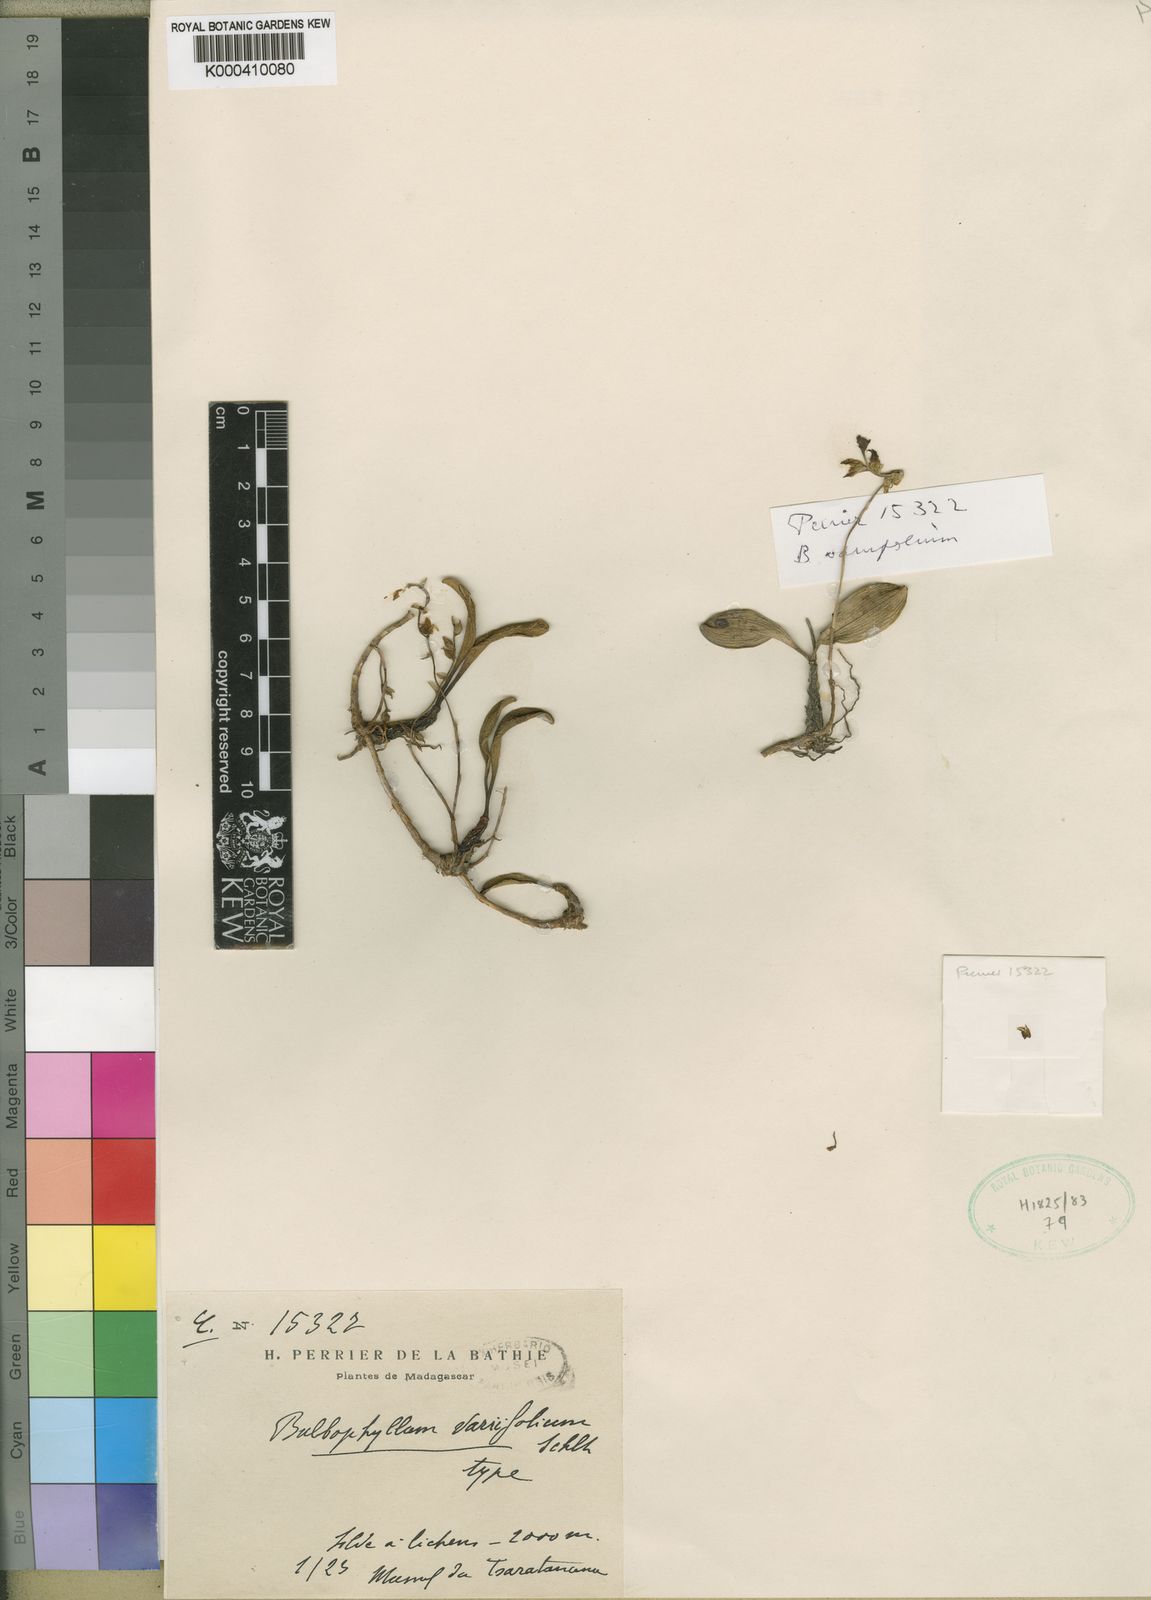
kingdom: Plantae
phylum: Tracheophyta
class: Liliopsida
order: Asparagales
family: Orchidaceae
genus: Bulbophyllum
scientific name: Bulbophyllum nutans
